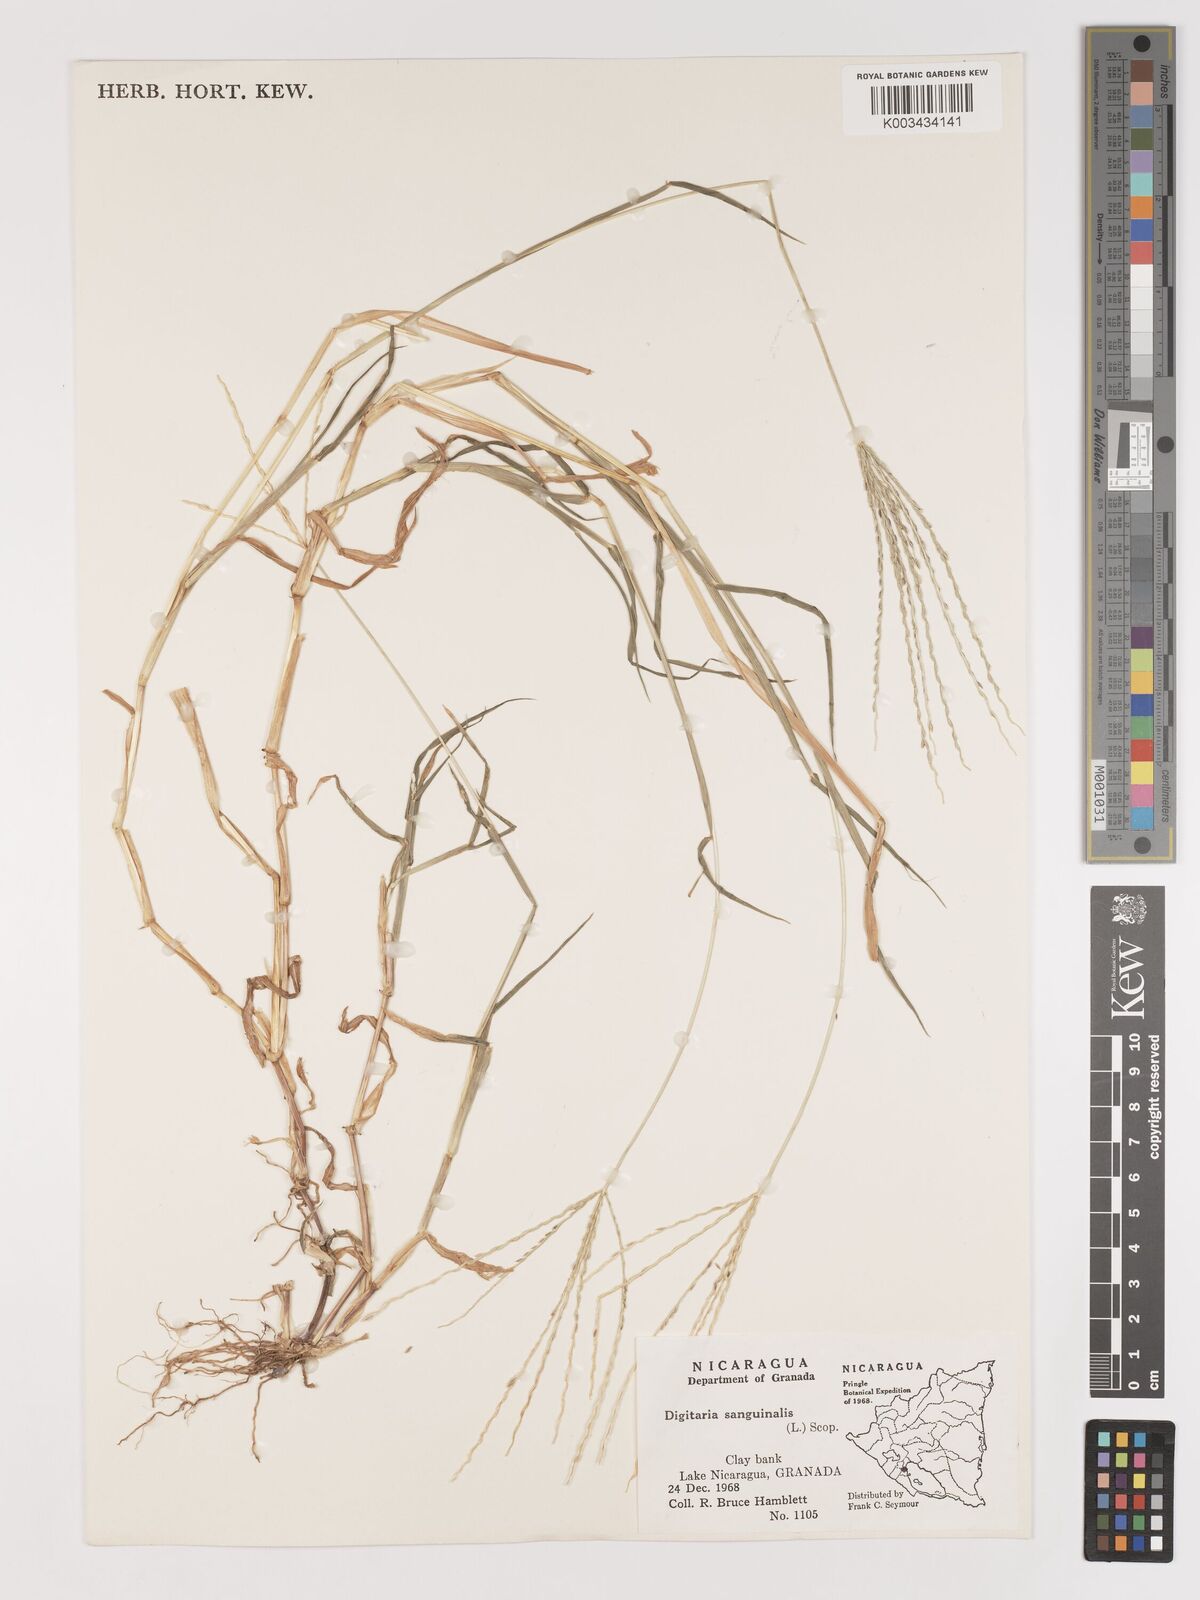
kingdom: Plantae
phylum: Tracheophyta
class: Liliopsida
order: Poales
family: Poaceae
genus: Digitaria
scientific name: Digitaria ciliaris
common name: Tropical finger-grass
